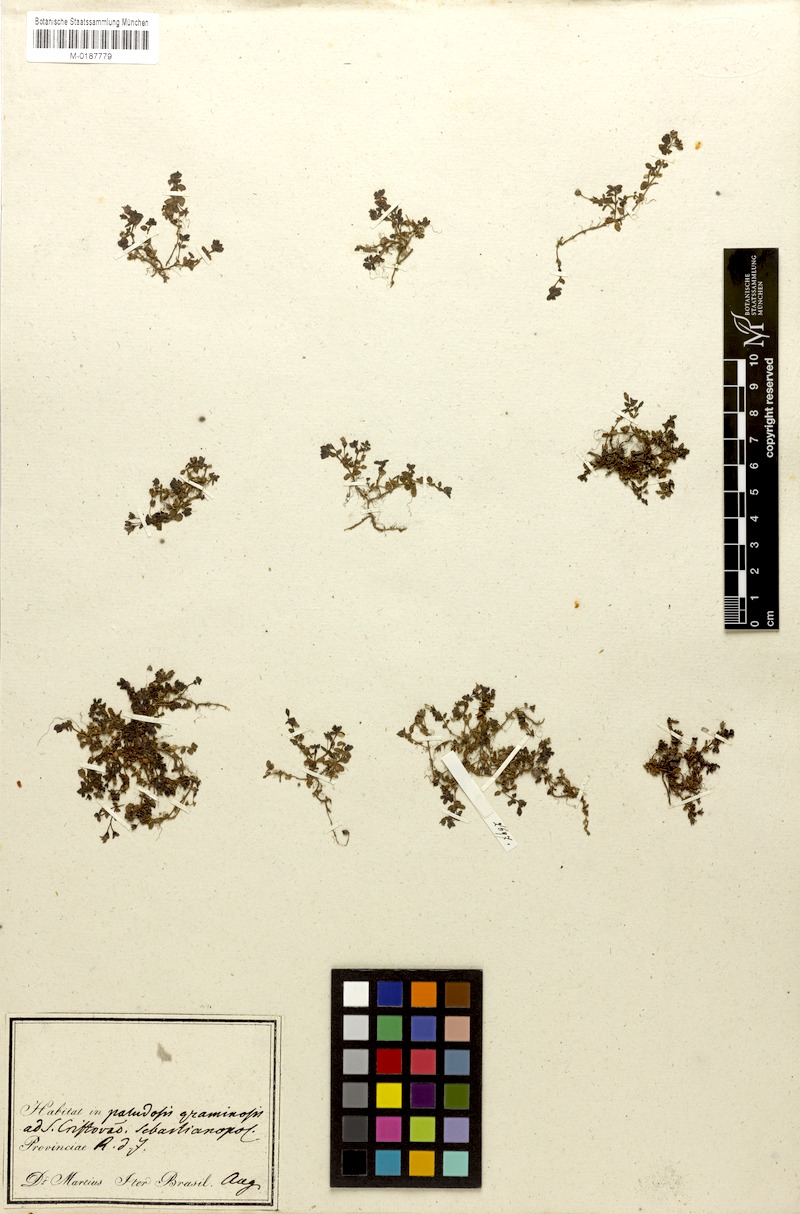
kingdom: Plantae
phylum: Tracheophyta
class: Magnoliopsida
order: Gentianales
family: Rubiaceae
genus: Houstonia
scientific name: Houstonia
